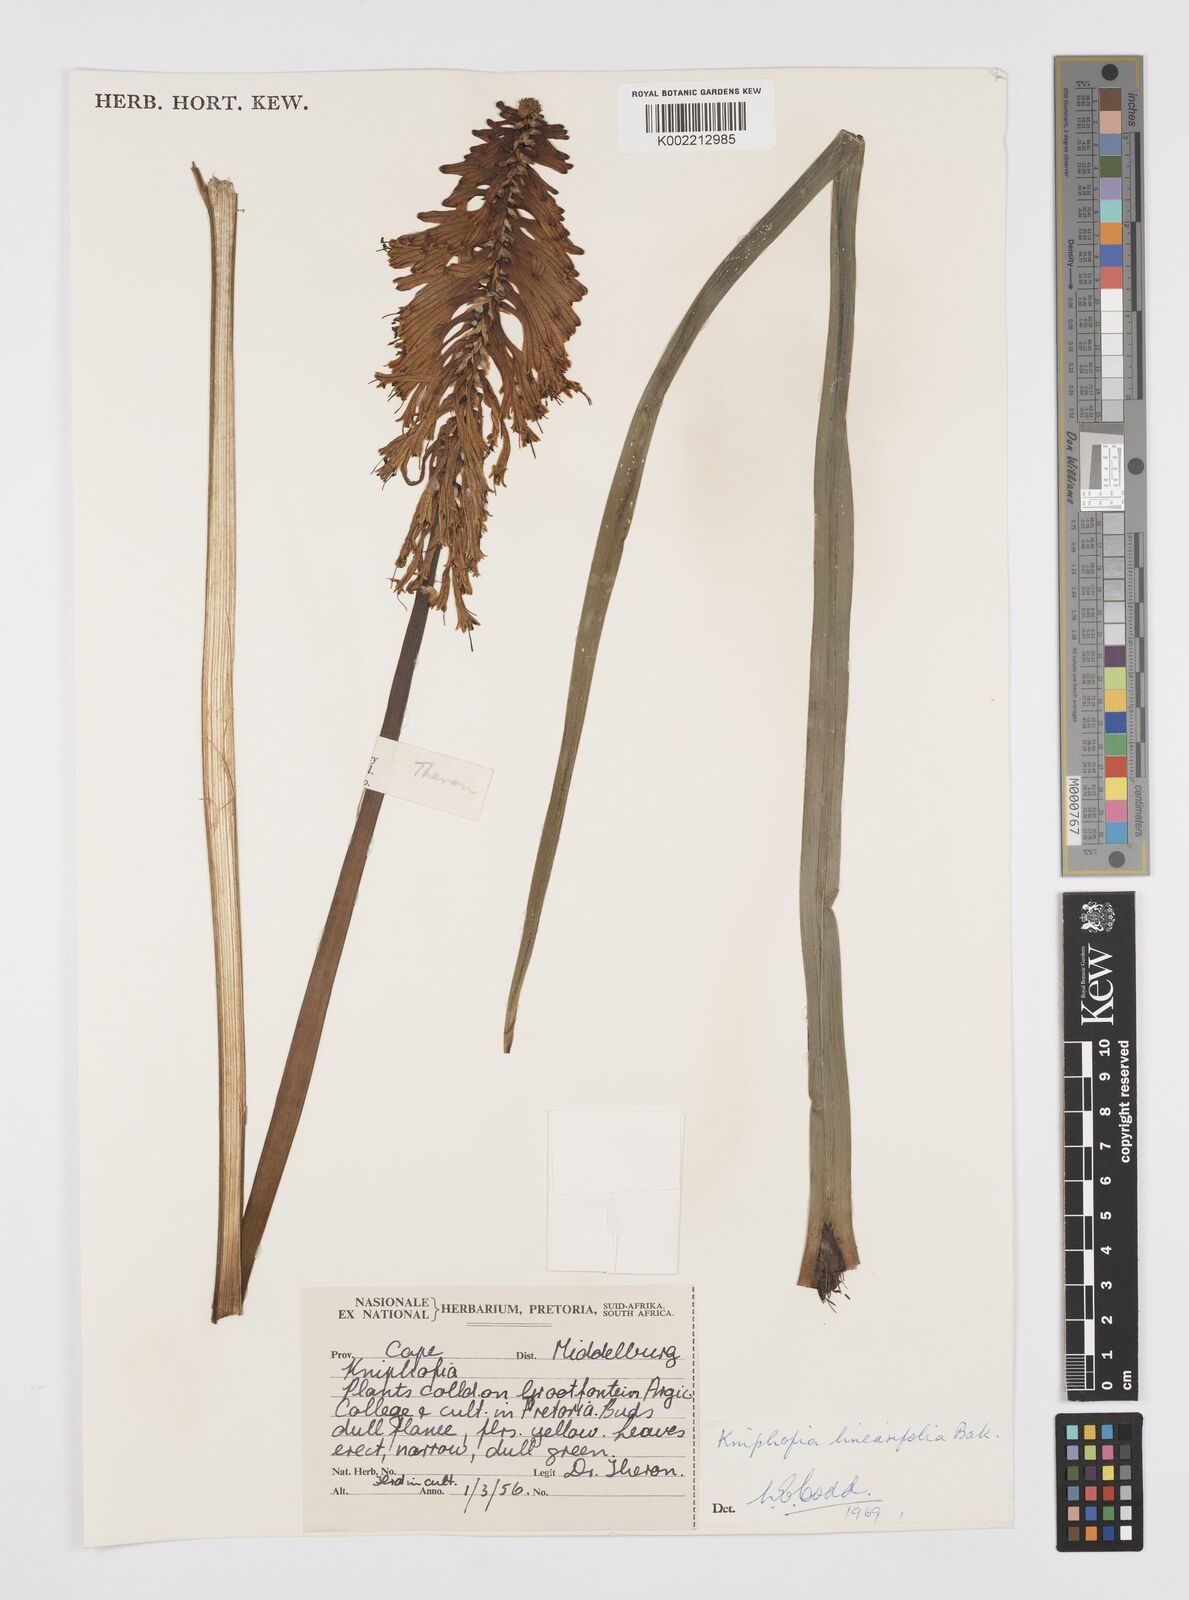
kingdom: Plantae
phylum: Tracheophyta
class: Liliopsida
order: Asparagales
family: Asphodelaceae
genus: Kniphofia
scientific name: Kniphofia linearifolia
